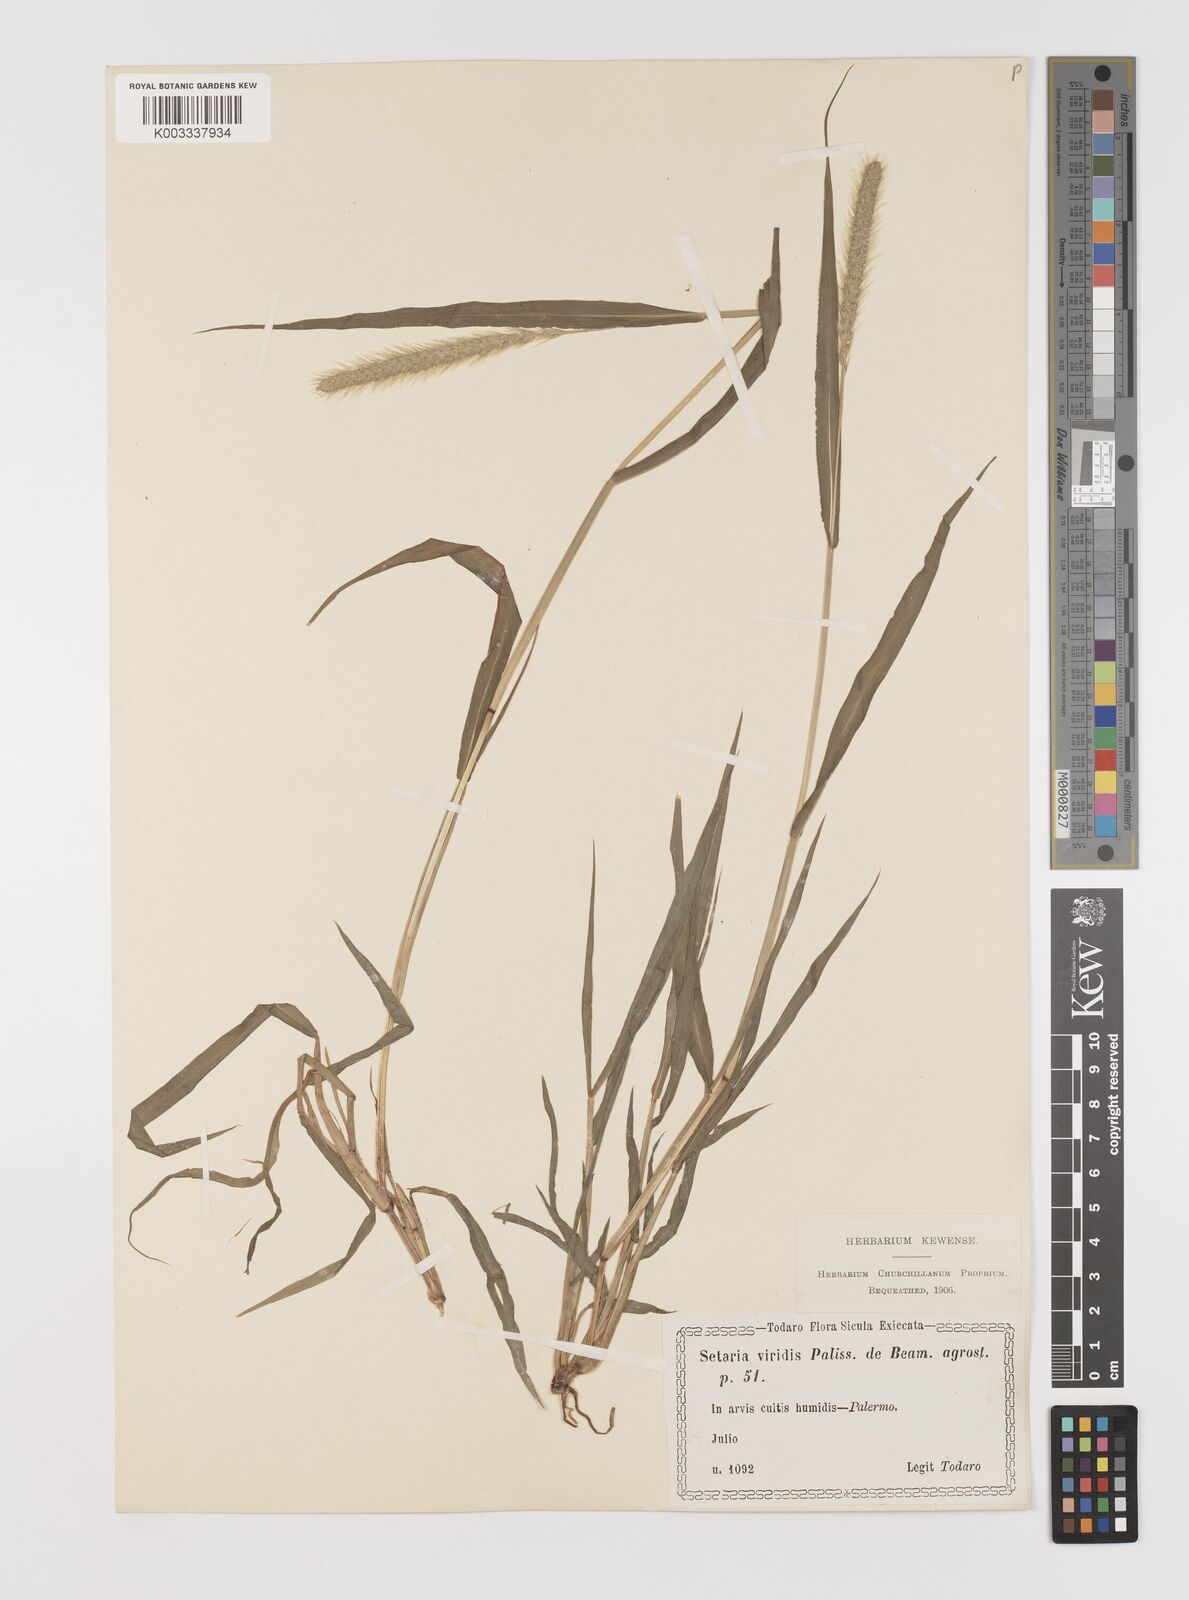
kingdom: Plantae
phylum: Tracheophyta
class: Liliopsida
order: Poales
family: Poaceae
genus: Setaria
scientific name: Setaria viridis
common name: Green bristlegrass
